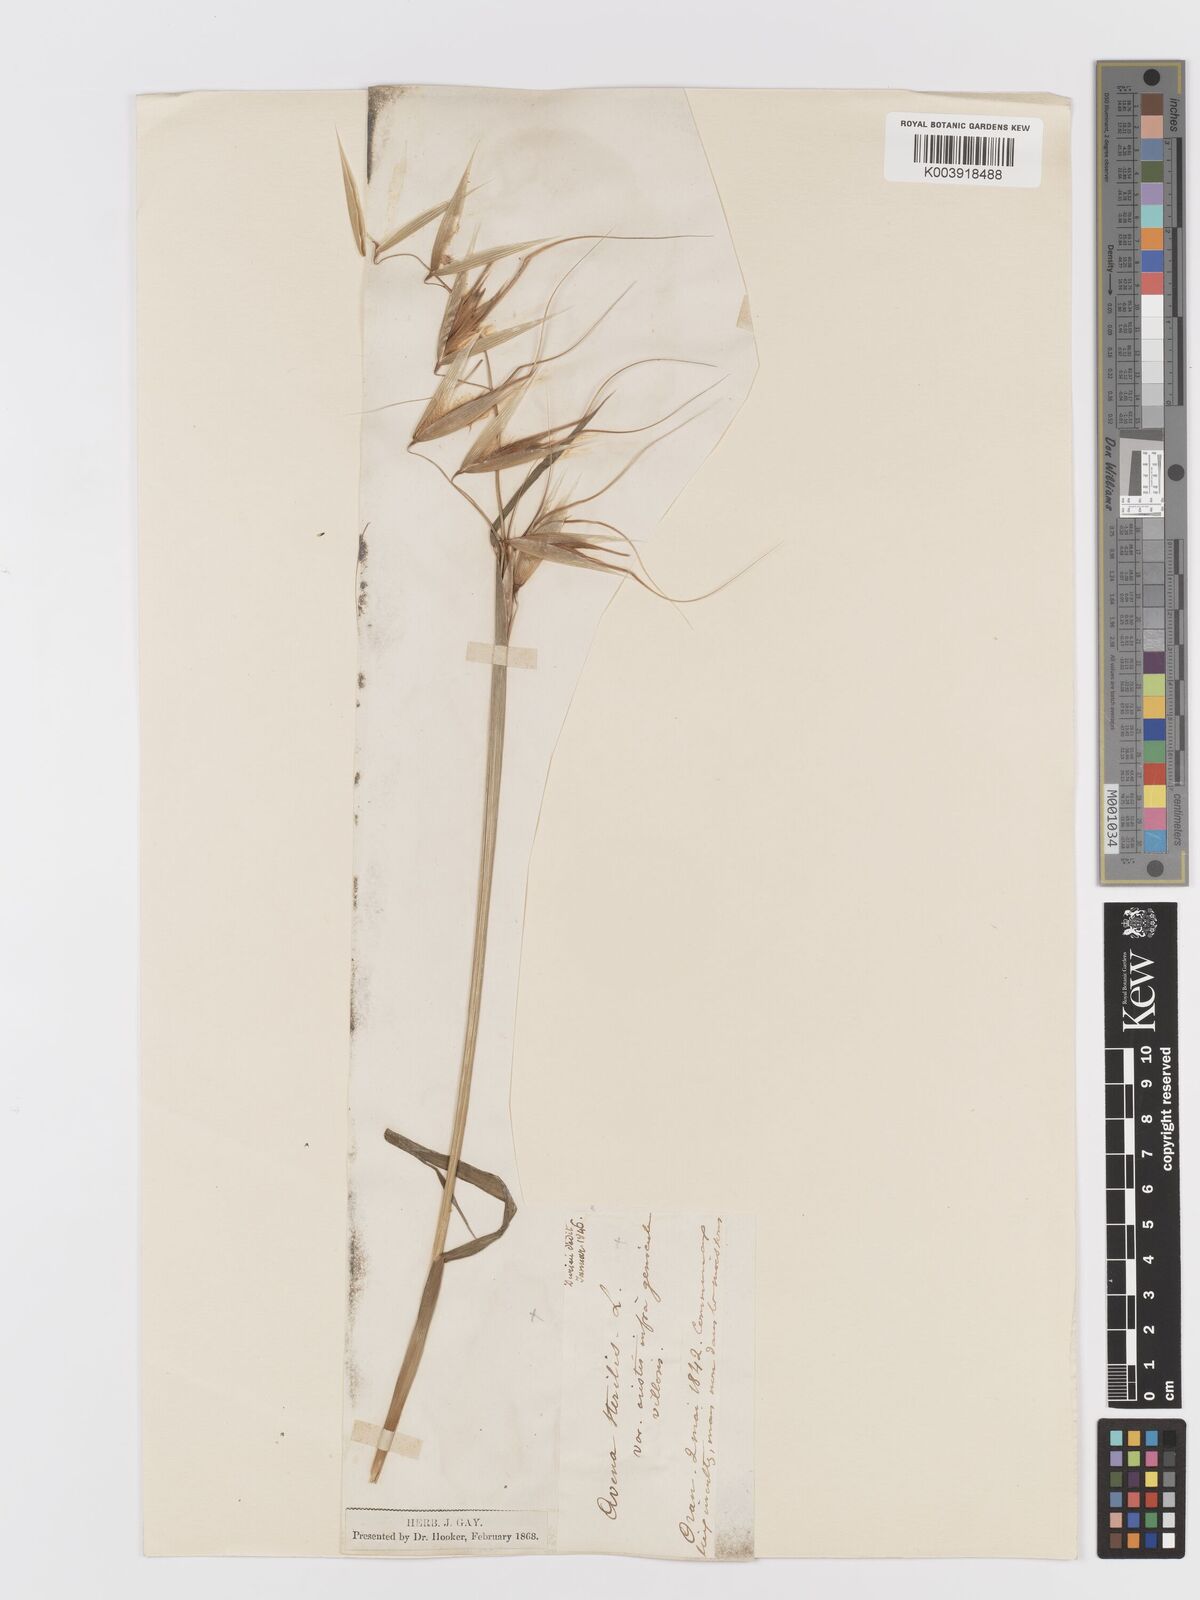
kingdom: Plantae
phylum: Tracheophyta
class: Liliopsida
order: Poales
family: Poaceae
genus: Avena
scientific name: Avena sterilis
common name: Animated oat
